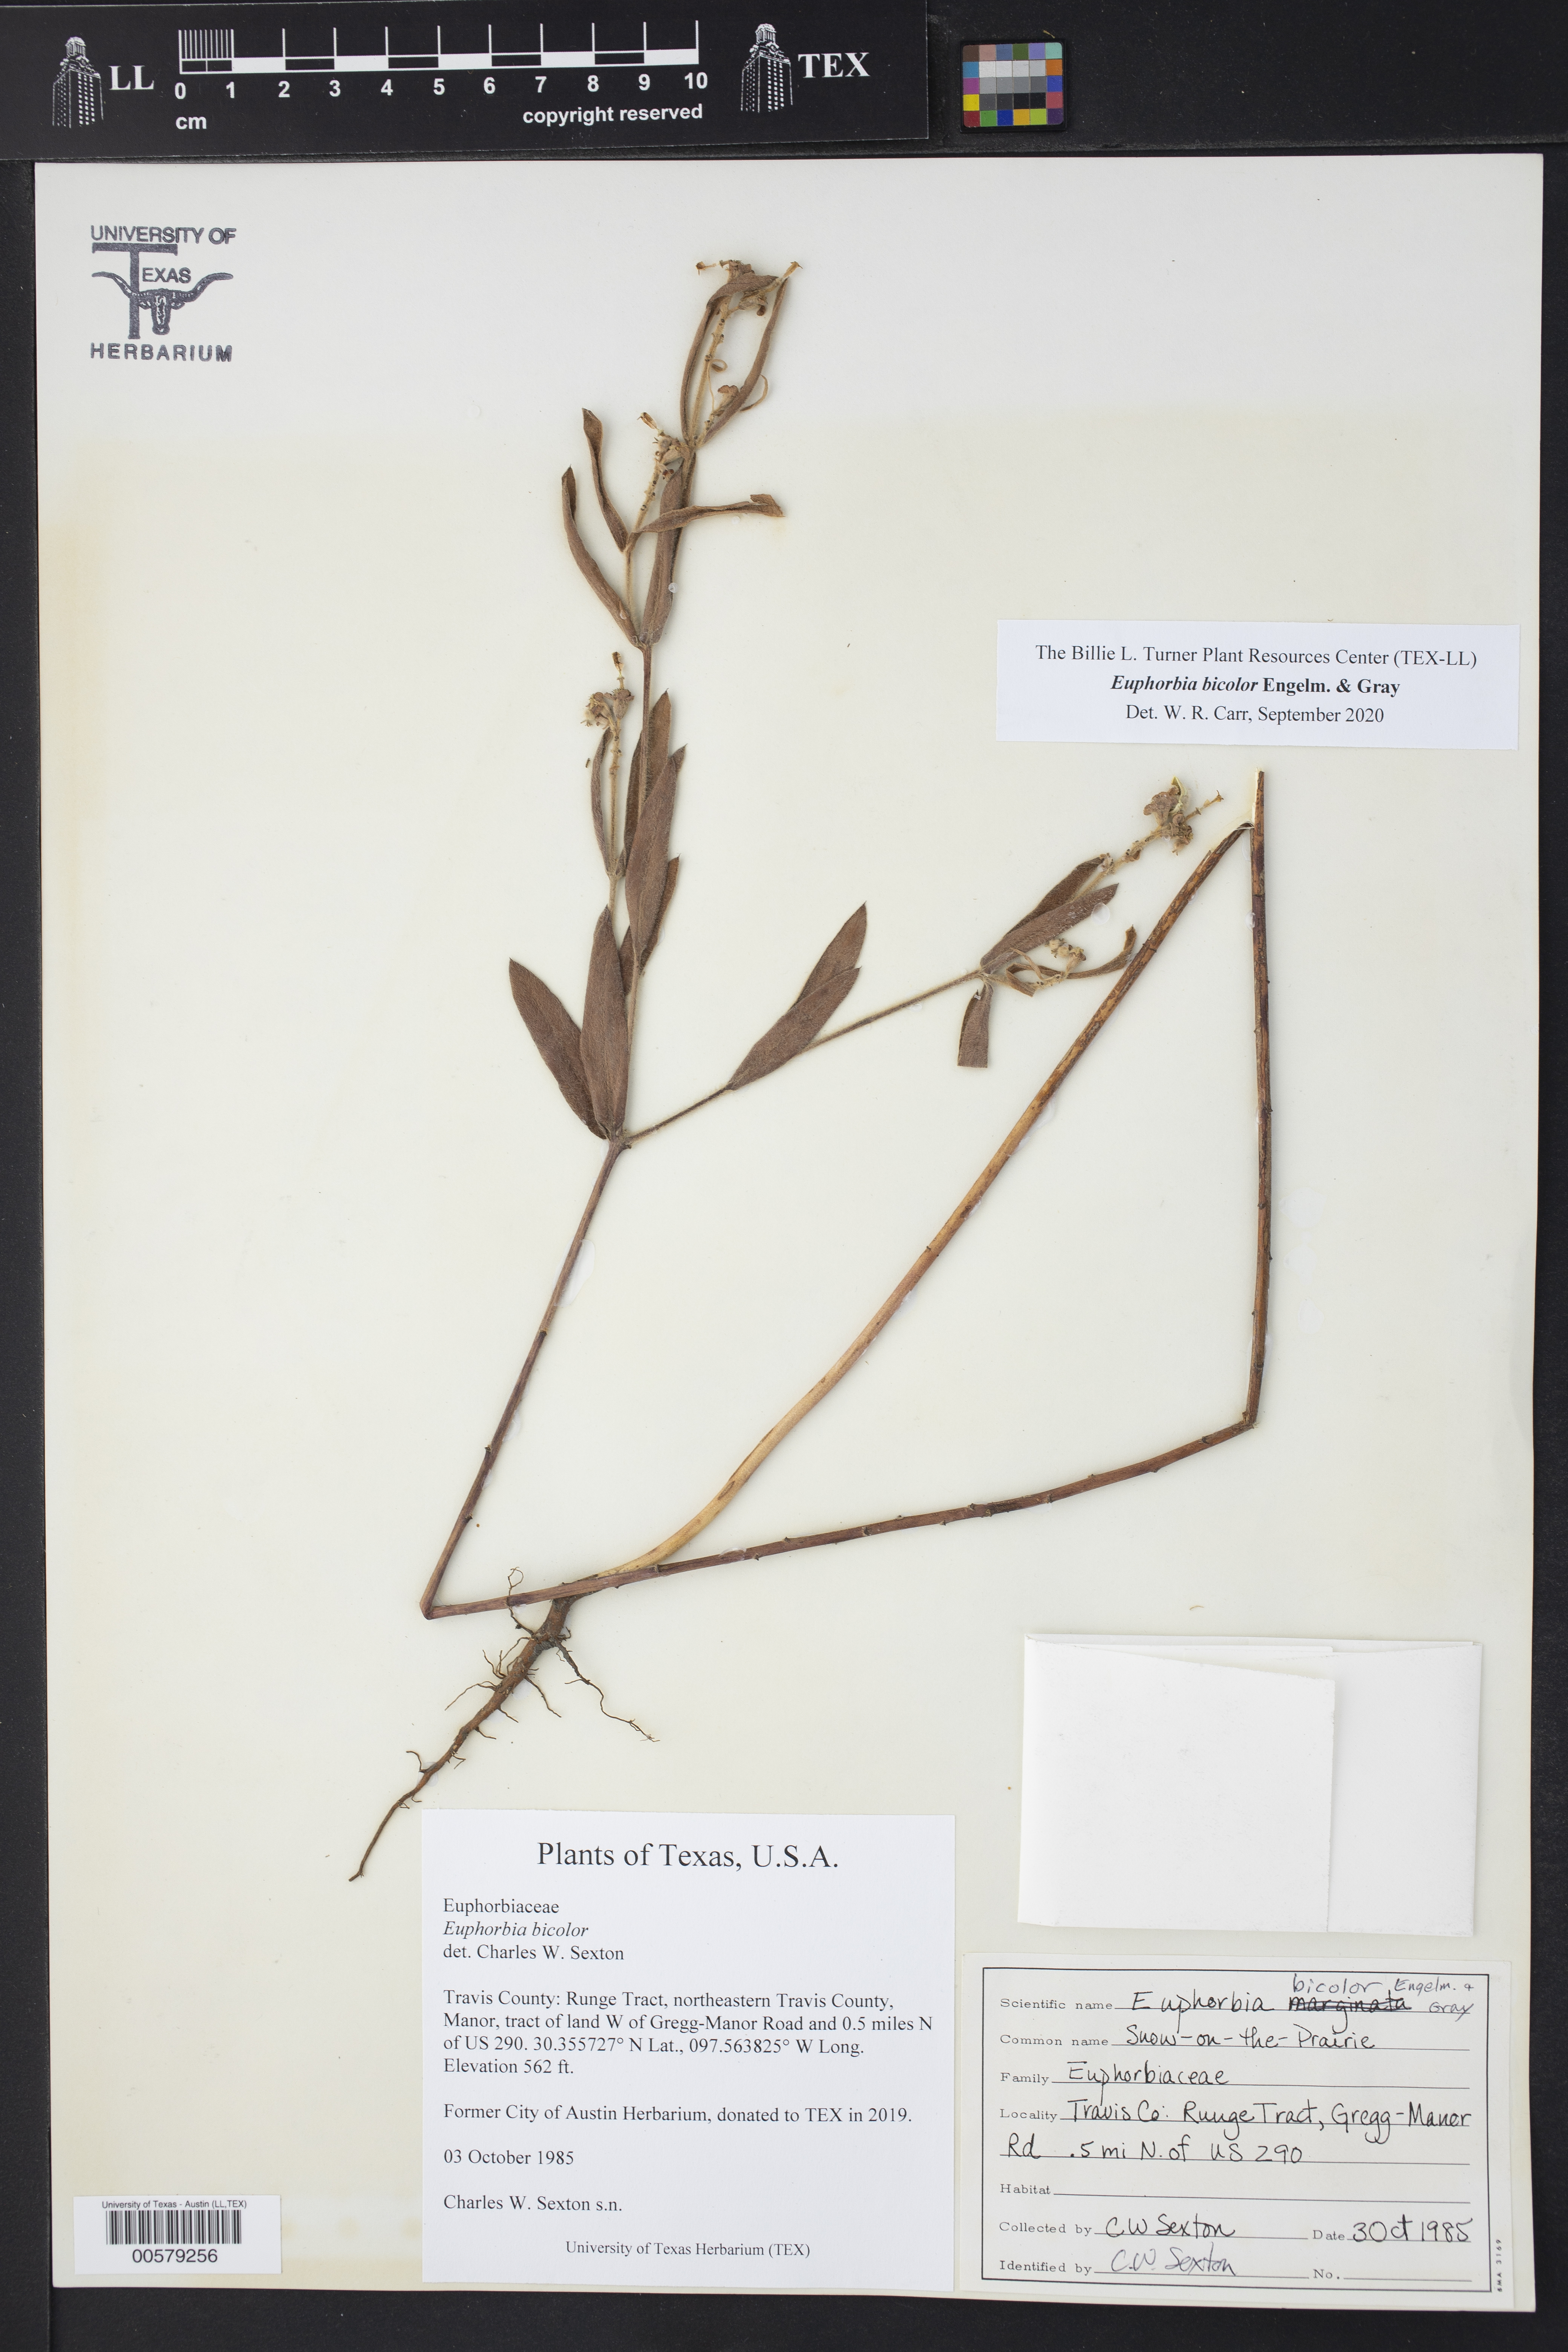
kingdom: Plantae
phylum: Tracheophyta
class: Magnoliopsida
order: Malpighiales
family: Euphorbiaceae
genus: Euphorbia
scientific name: Euphorbia bicolor
